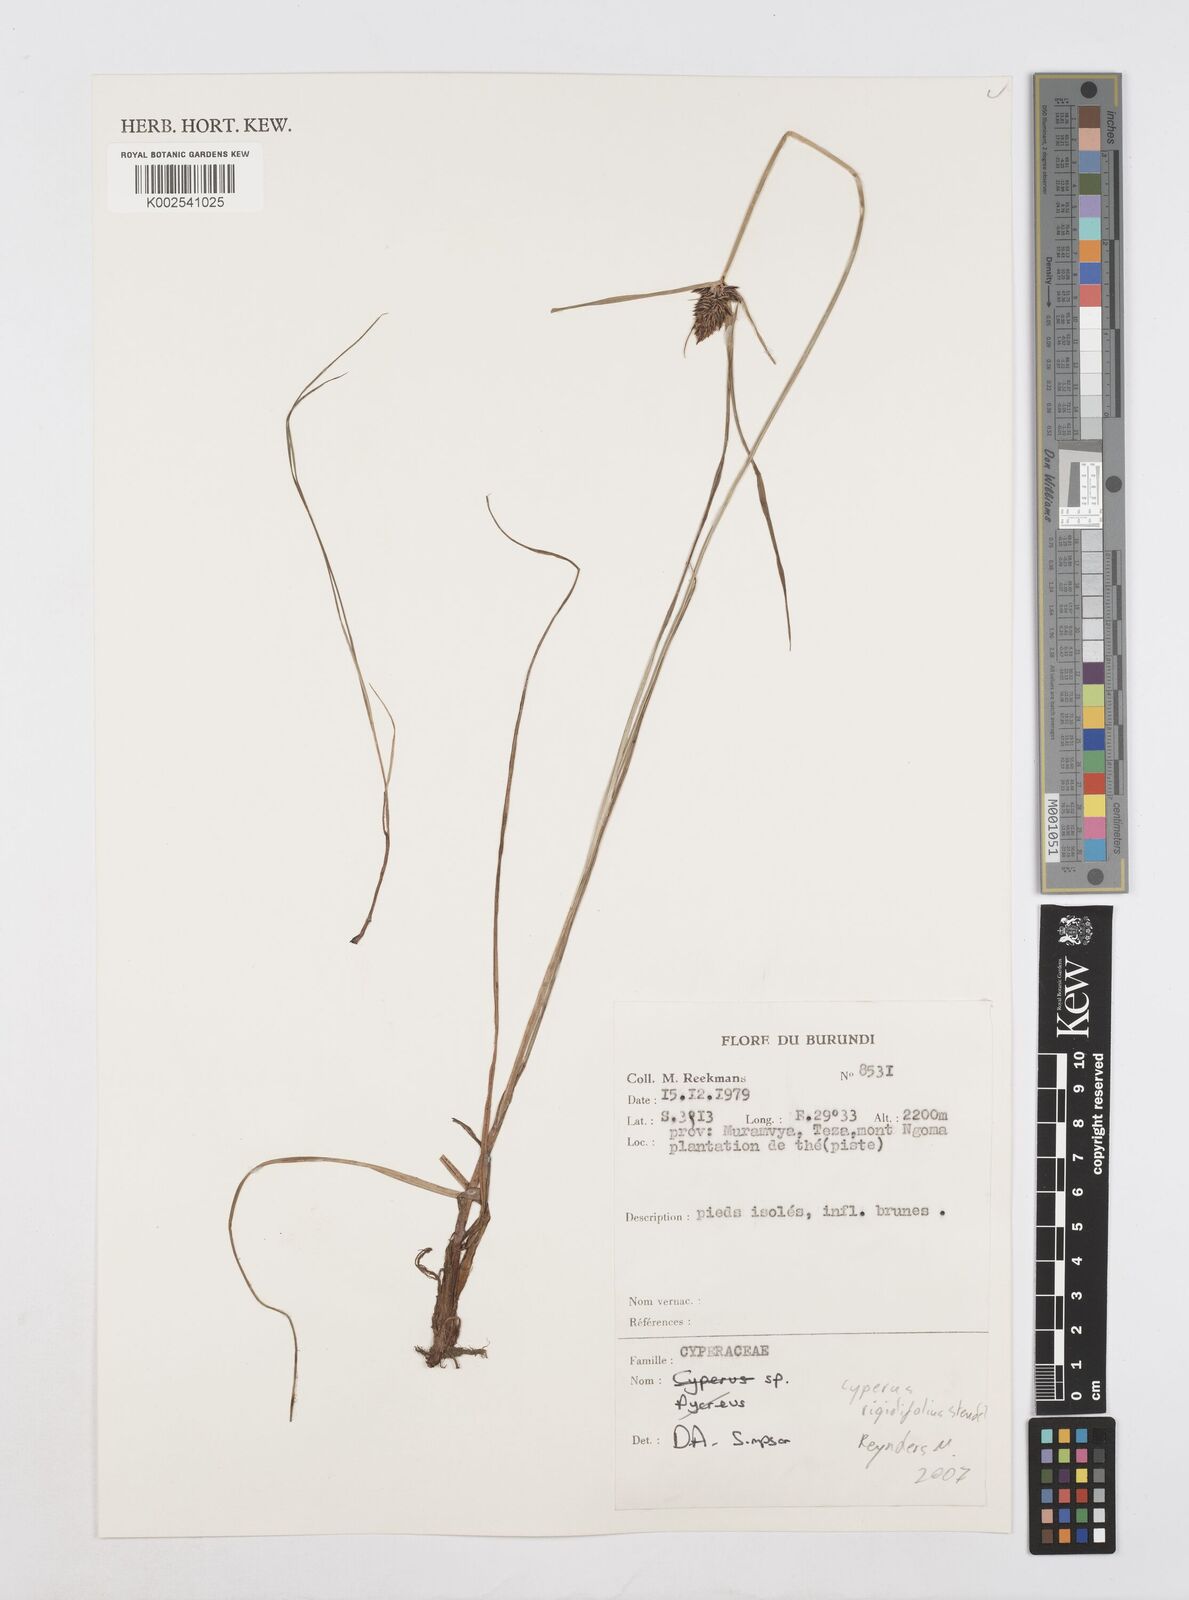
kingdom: Plantae
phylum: Tracheophyta
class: Liliopsida
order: Poales
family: Cyperaceae
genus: Cyperus
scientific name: Cyperus
